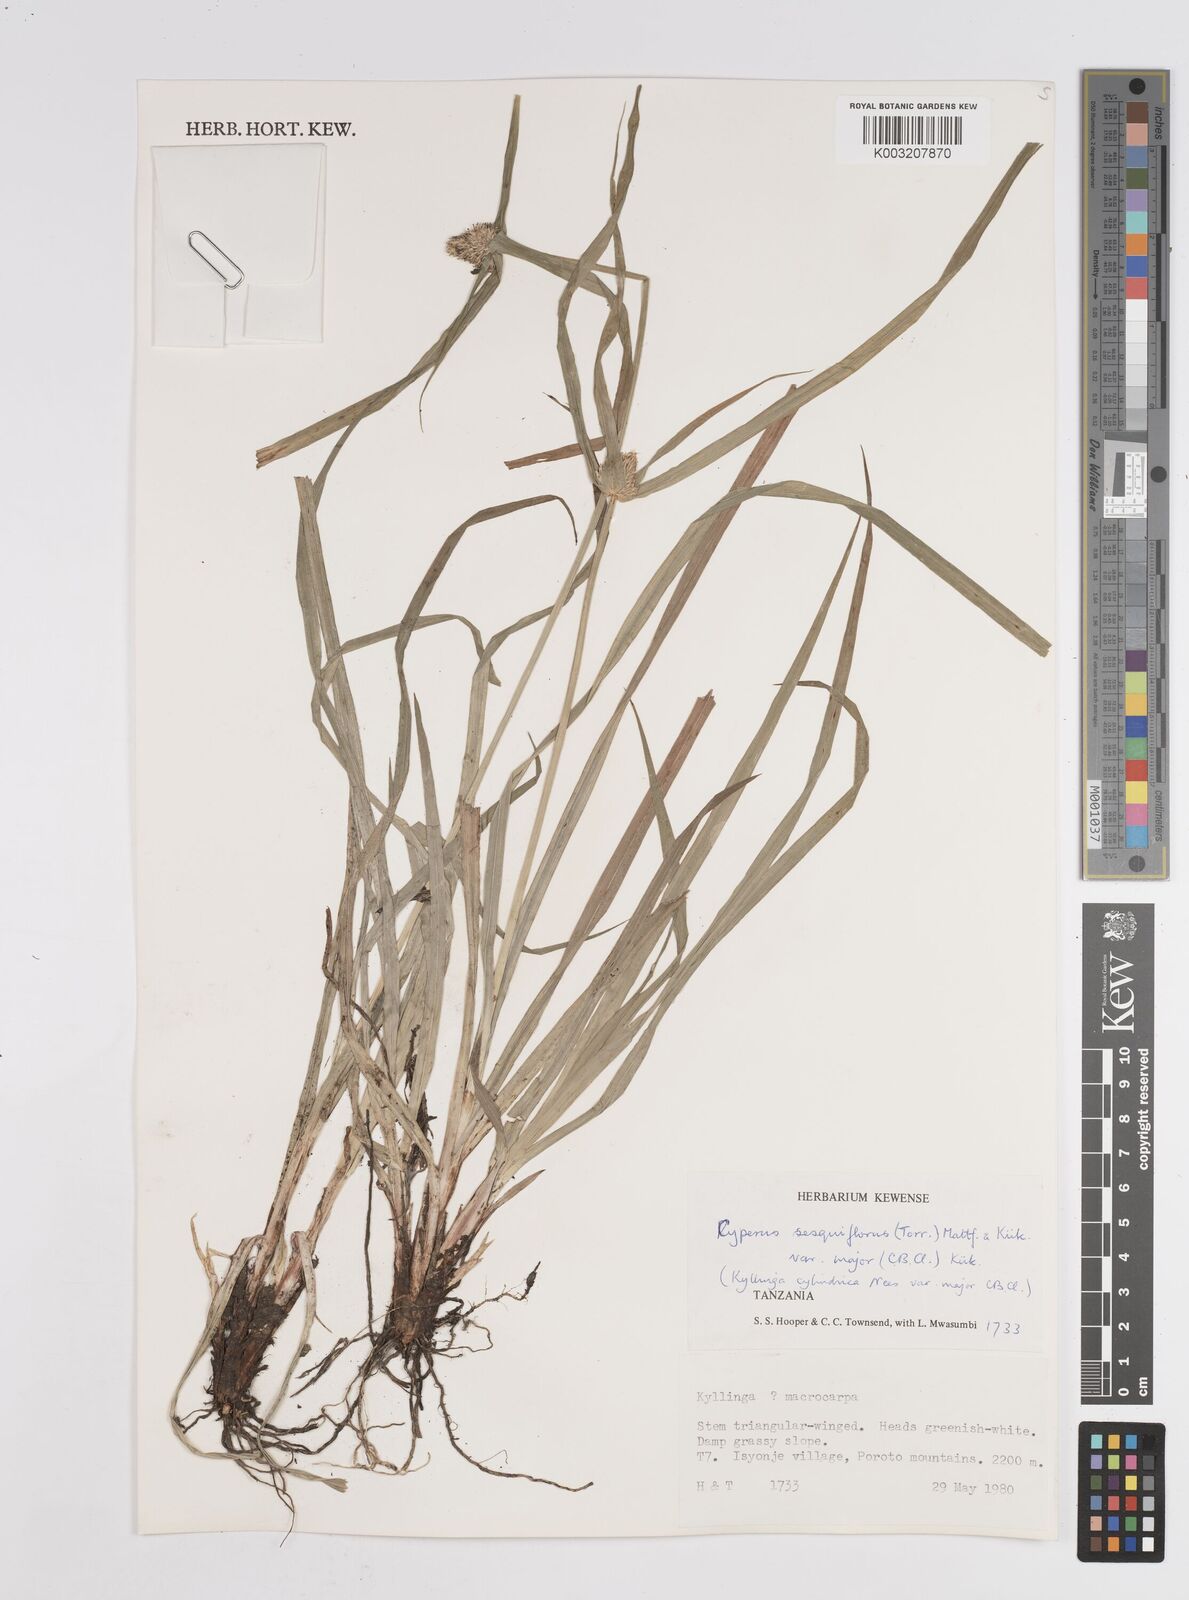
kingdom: Plantae
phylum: Tracheophyta
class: Liliopsida
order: Poales
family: Cyperaceae
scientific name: Cyperaceae
